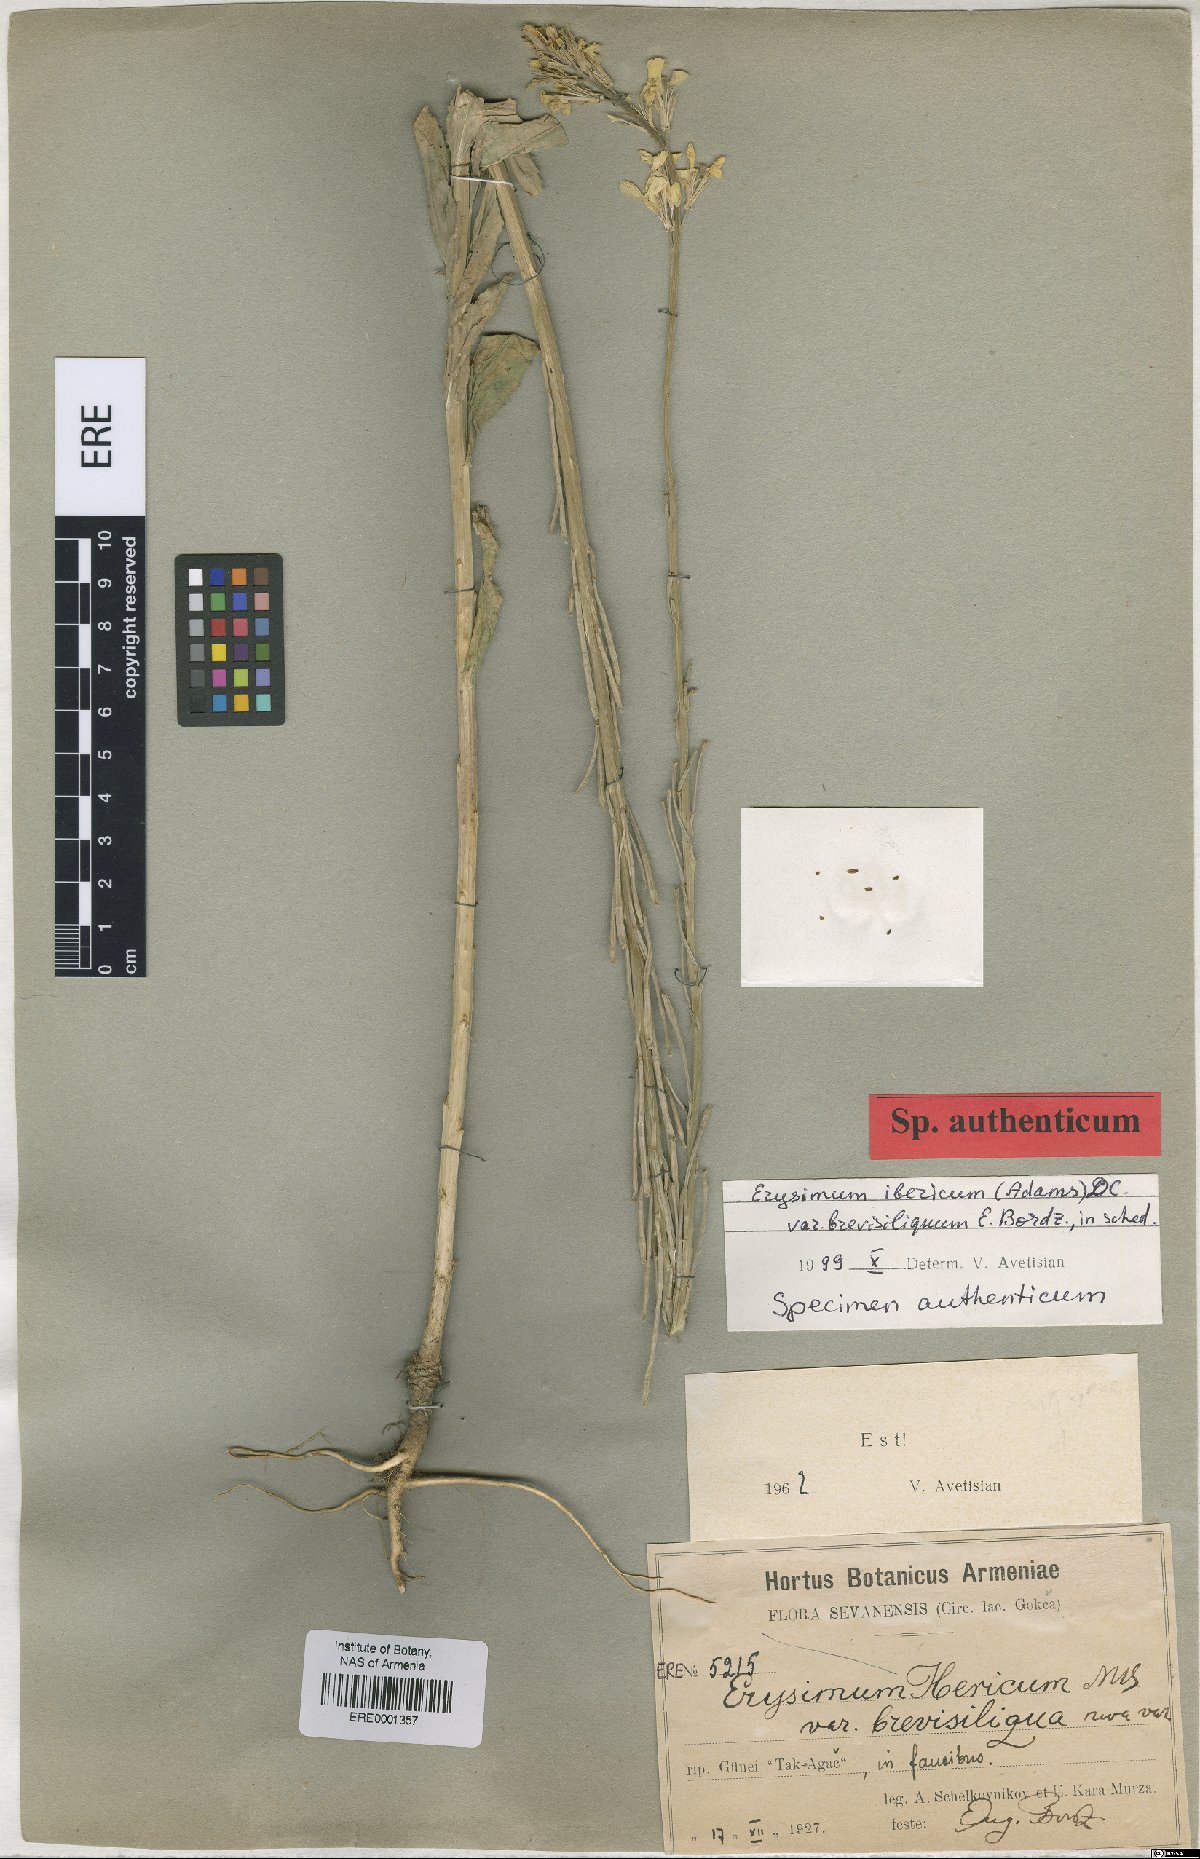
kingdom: Plantae
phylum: Tracheophyta
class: Magnoliopsida
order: Brassicales
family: Brassicaceae
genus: Erysimum
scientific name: Erysimum ibericum
